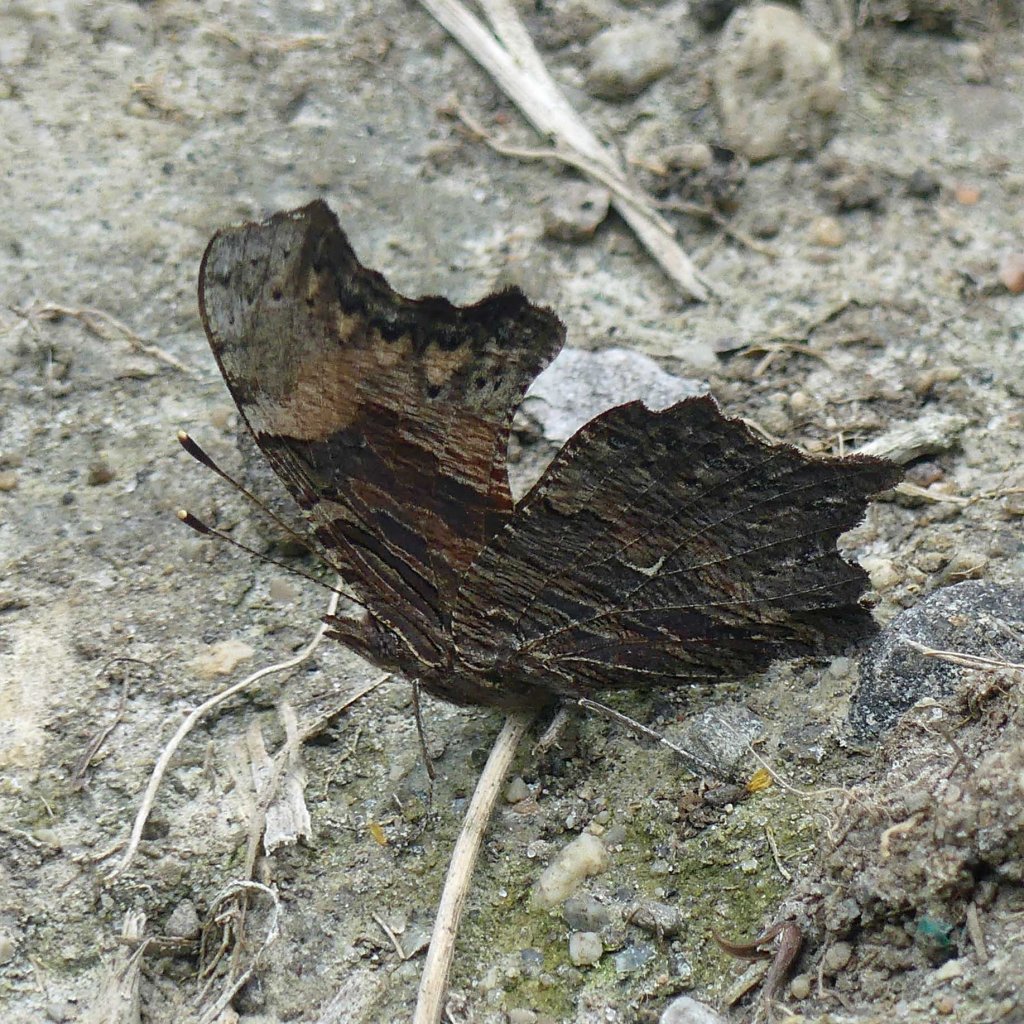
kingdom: Animalia
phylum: Arthropoda
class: Insecta
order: Lepidoptera
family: Nymphalidae
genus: Polygonia
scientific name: Polygonia progne
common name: Gray Comma
